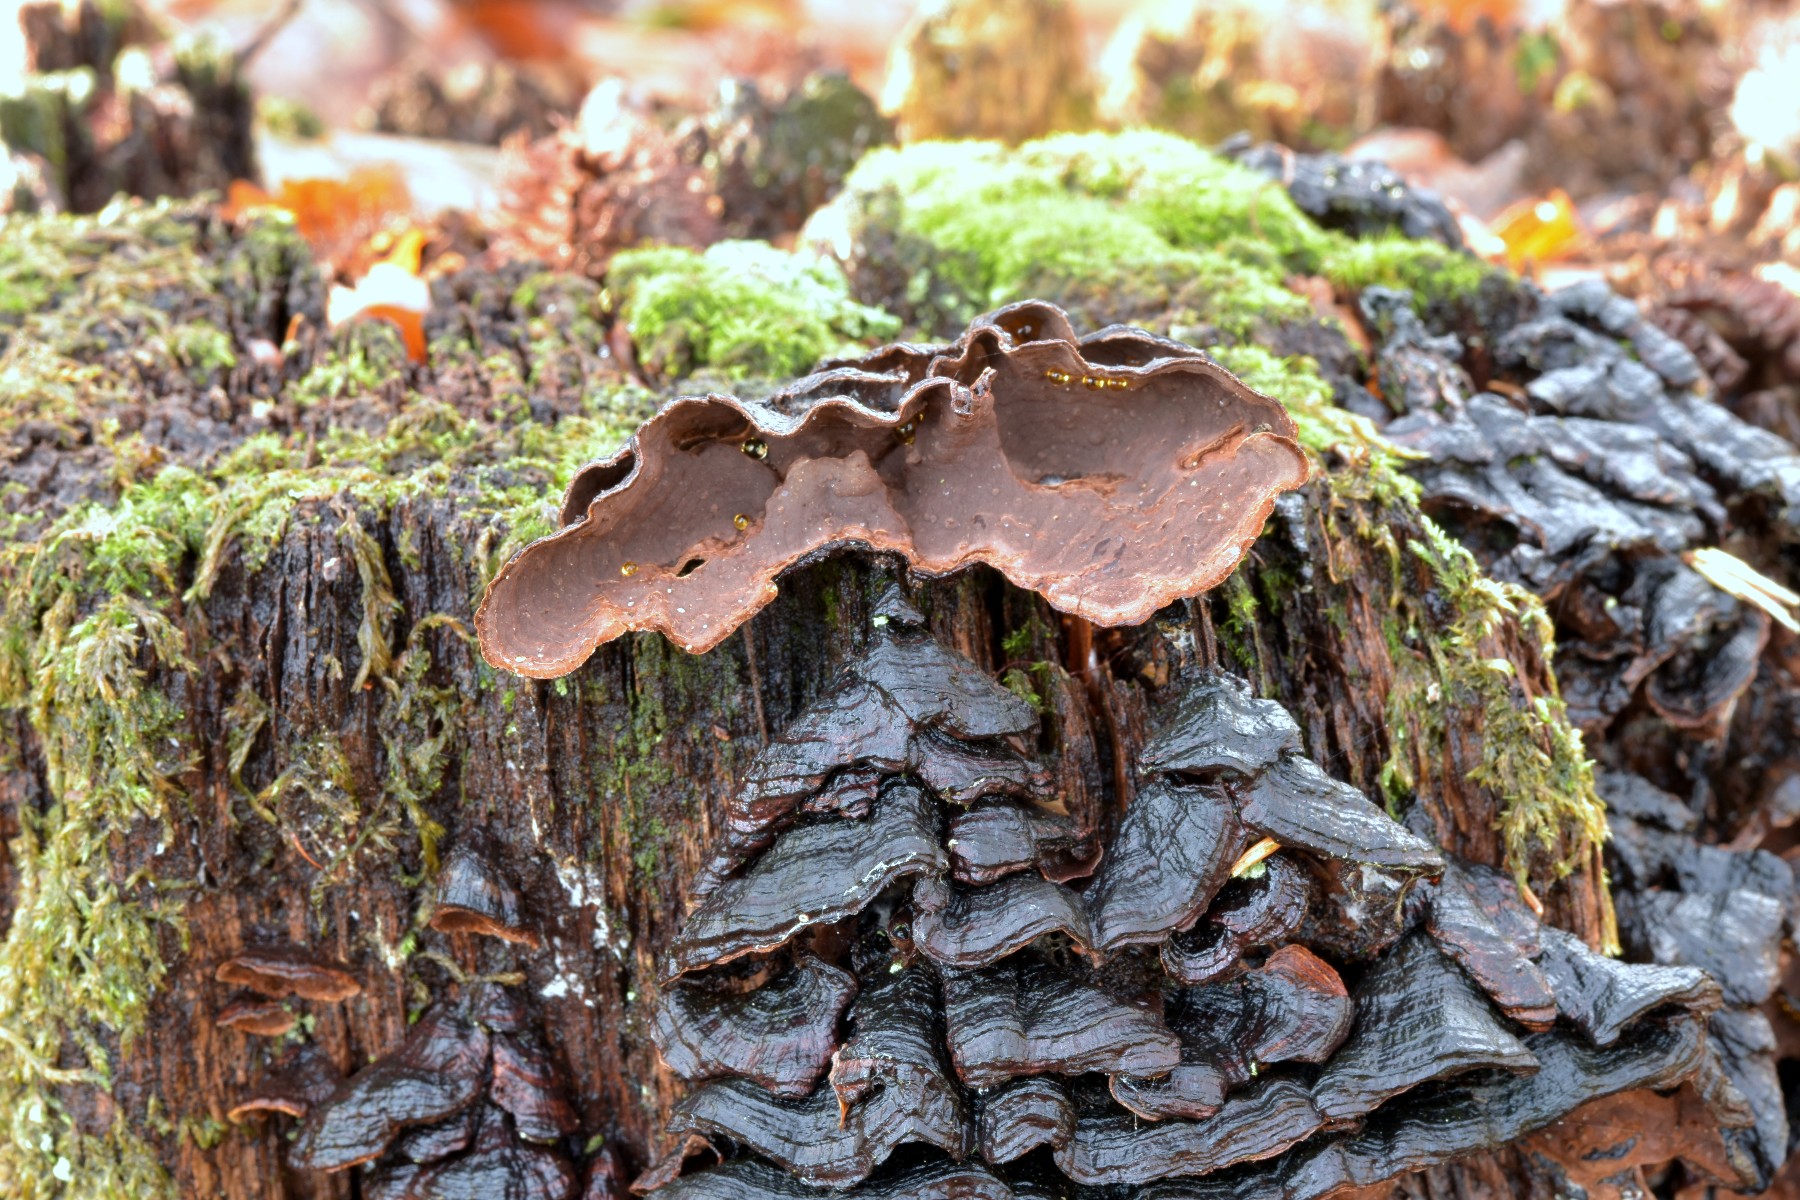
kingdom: Fungi
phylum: Basidiomycota
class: Agaricomycetes
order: Hymenochaetales
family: Hymenochaetaceae
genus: Hymenochaete
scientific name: Hymenochaete rubiginosa
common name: stiv ruslædersvamp
